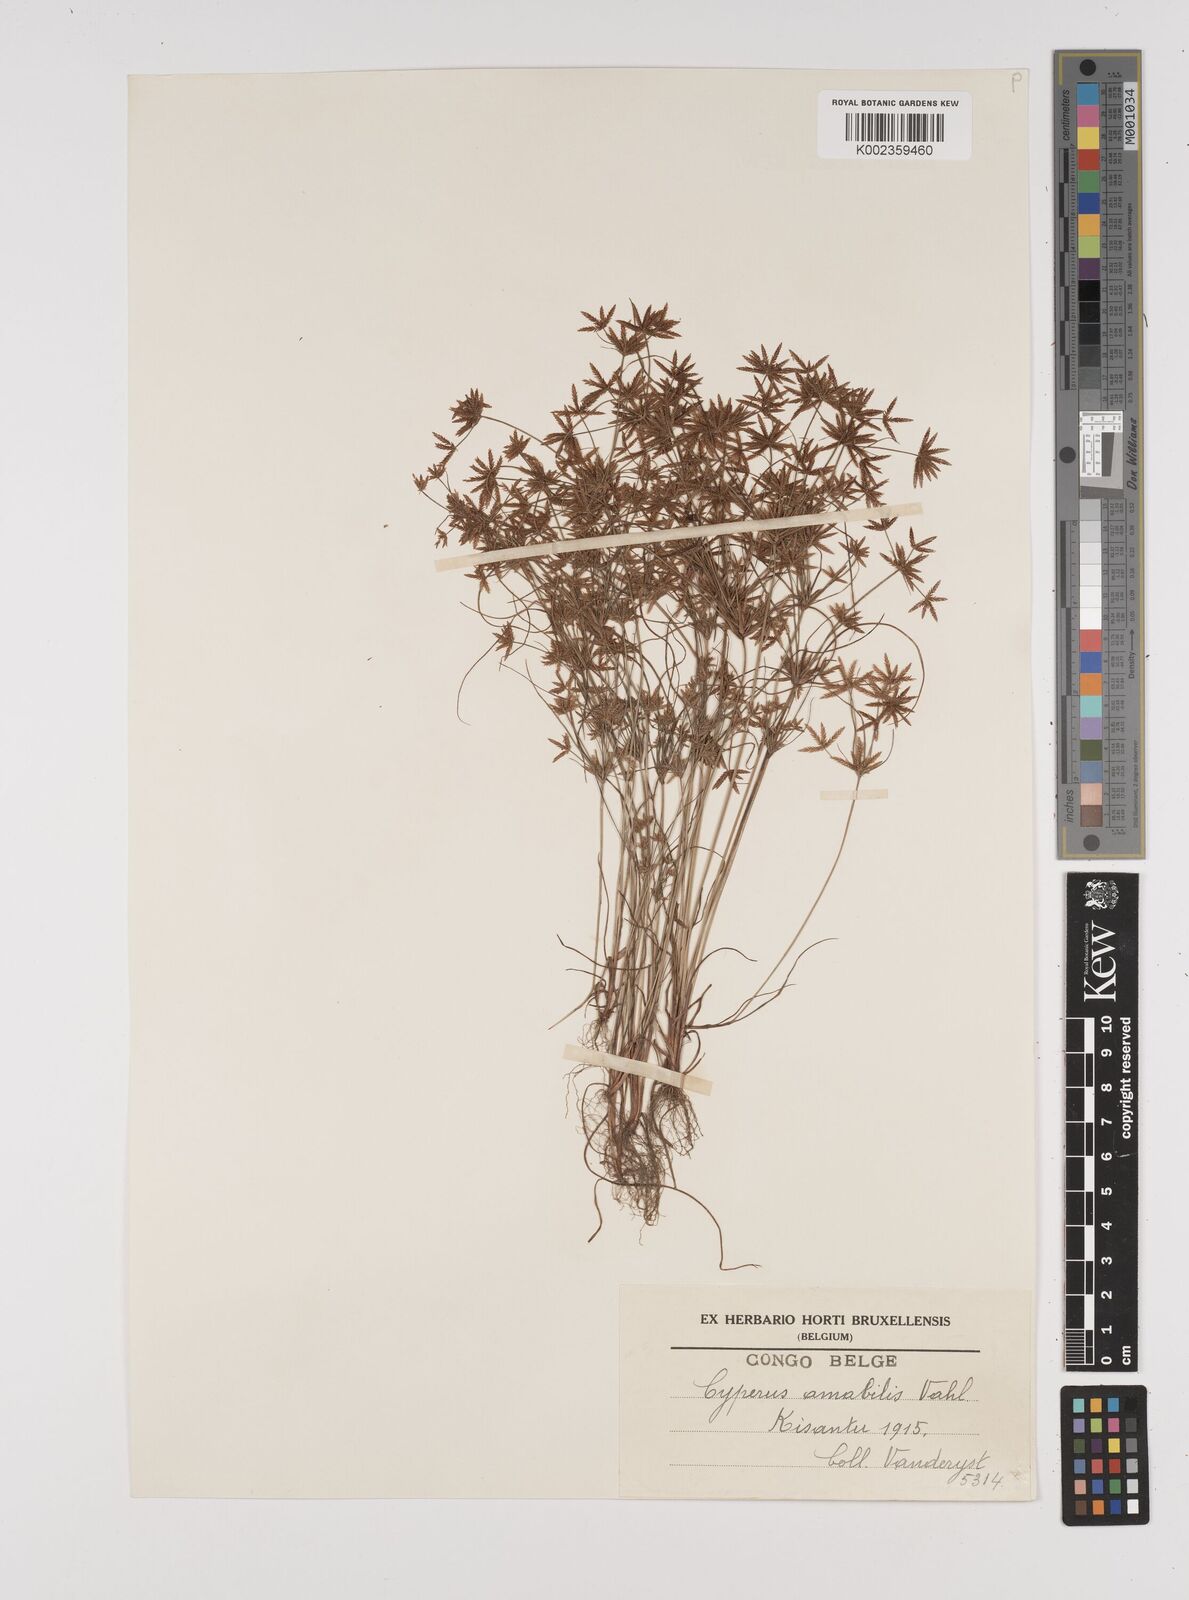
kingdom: Plantae
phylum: Tracheophyta
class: Liliopsida
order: Poales
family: Cyperaceae
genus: Cyperus
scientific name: Cyperus amabilis
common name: Foothill flat sedge
